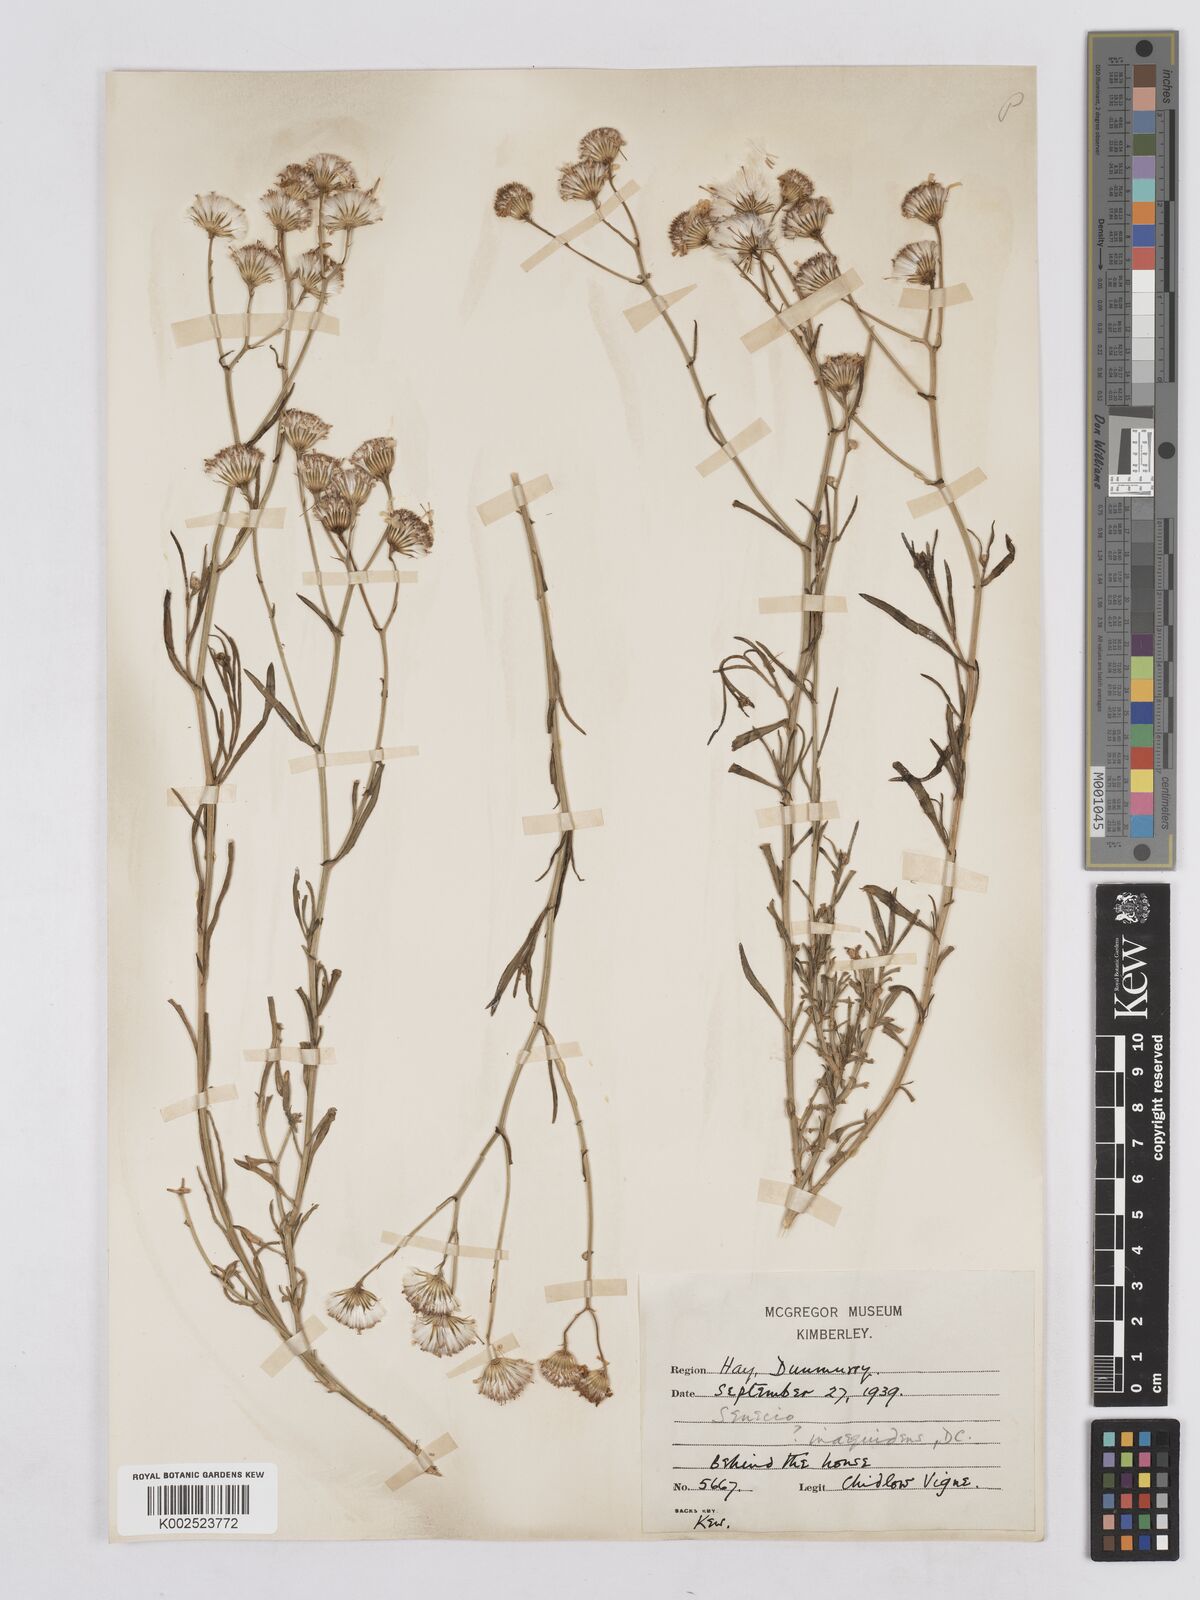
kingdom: Plantae
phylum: Tracheophyta
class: Magnoliopsida
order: Asterales
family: Asteraceae
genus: Senecio
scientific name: Senecio vimineus
